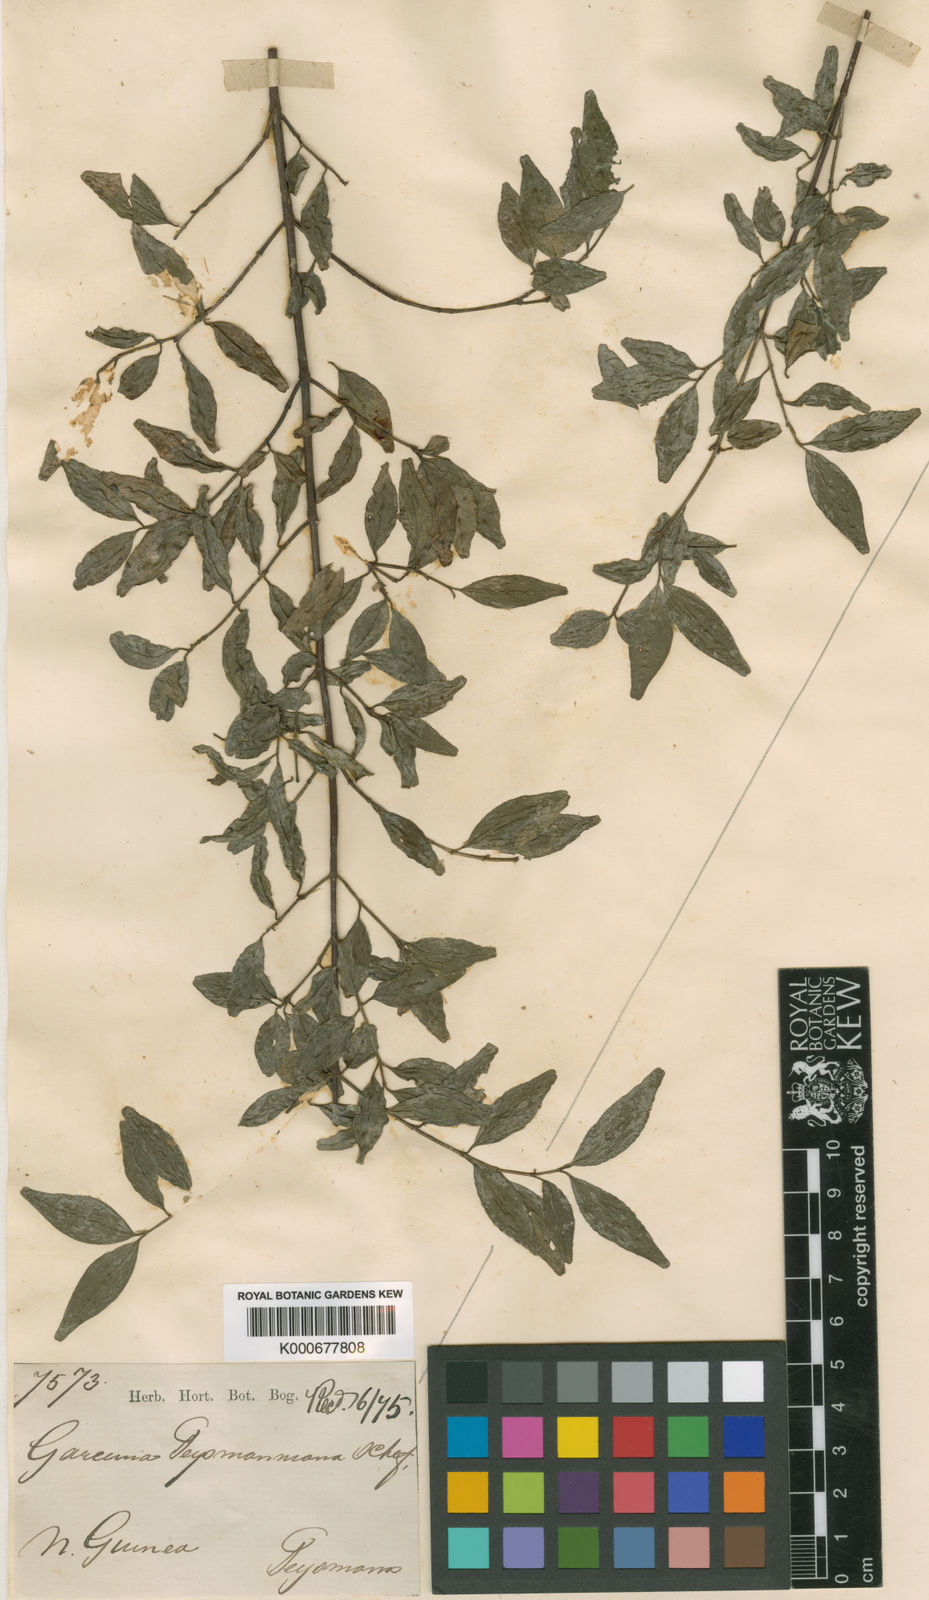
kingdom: Plantae
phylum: Tracheophyta
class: Magnoliopsida
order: Malpighiales
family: Clusiaceae
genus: Garcinia
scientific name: Garcinia teysmanniana
